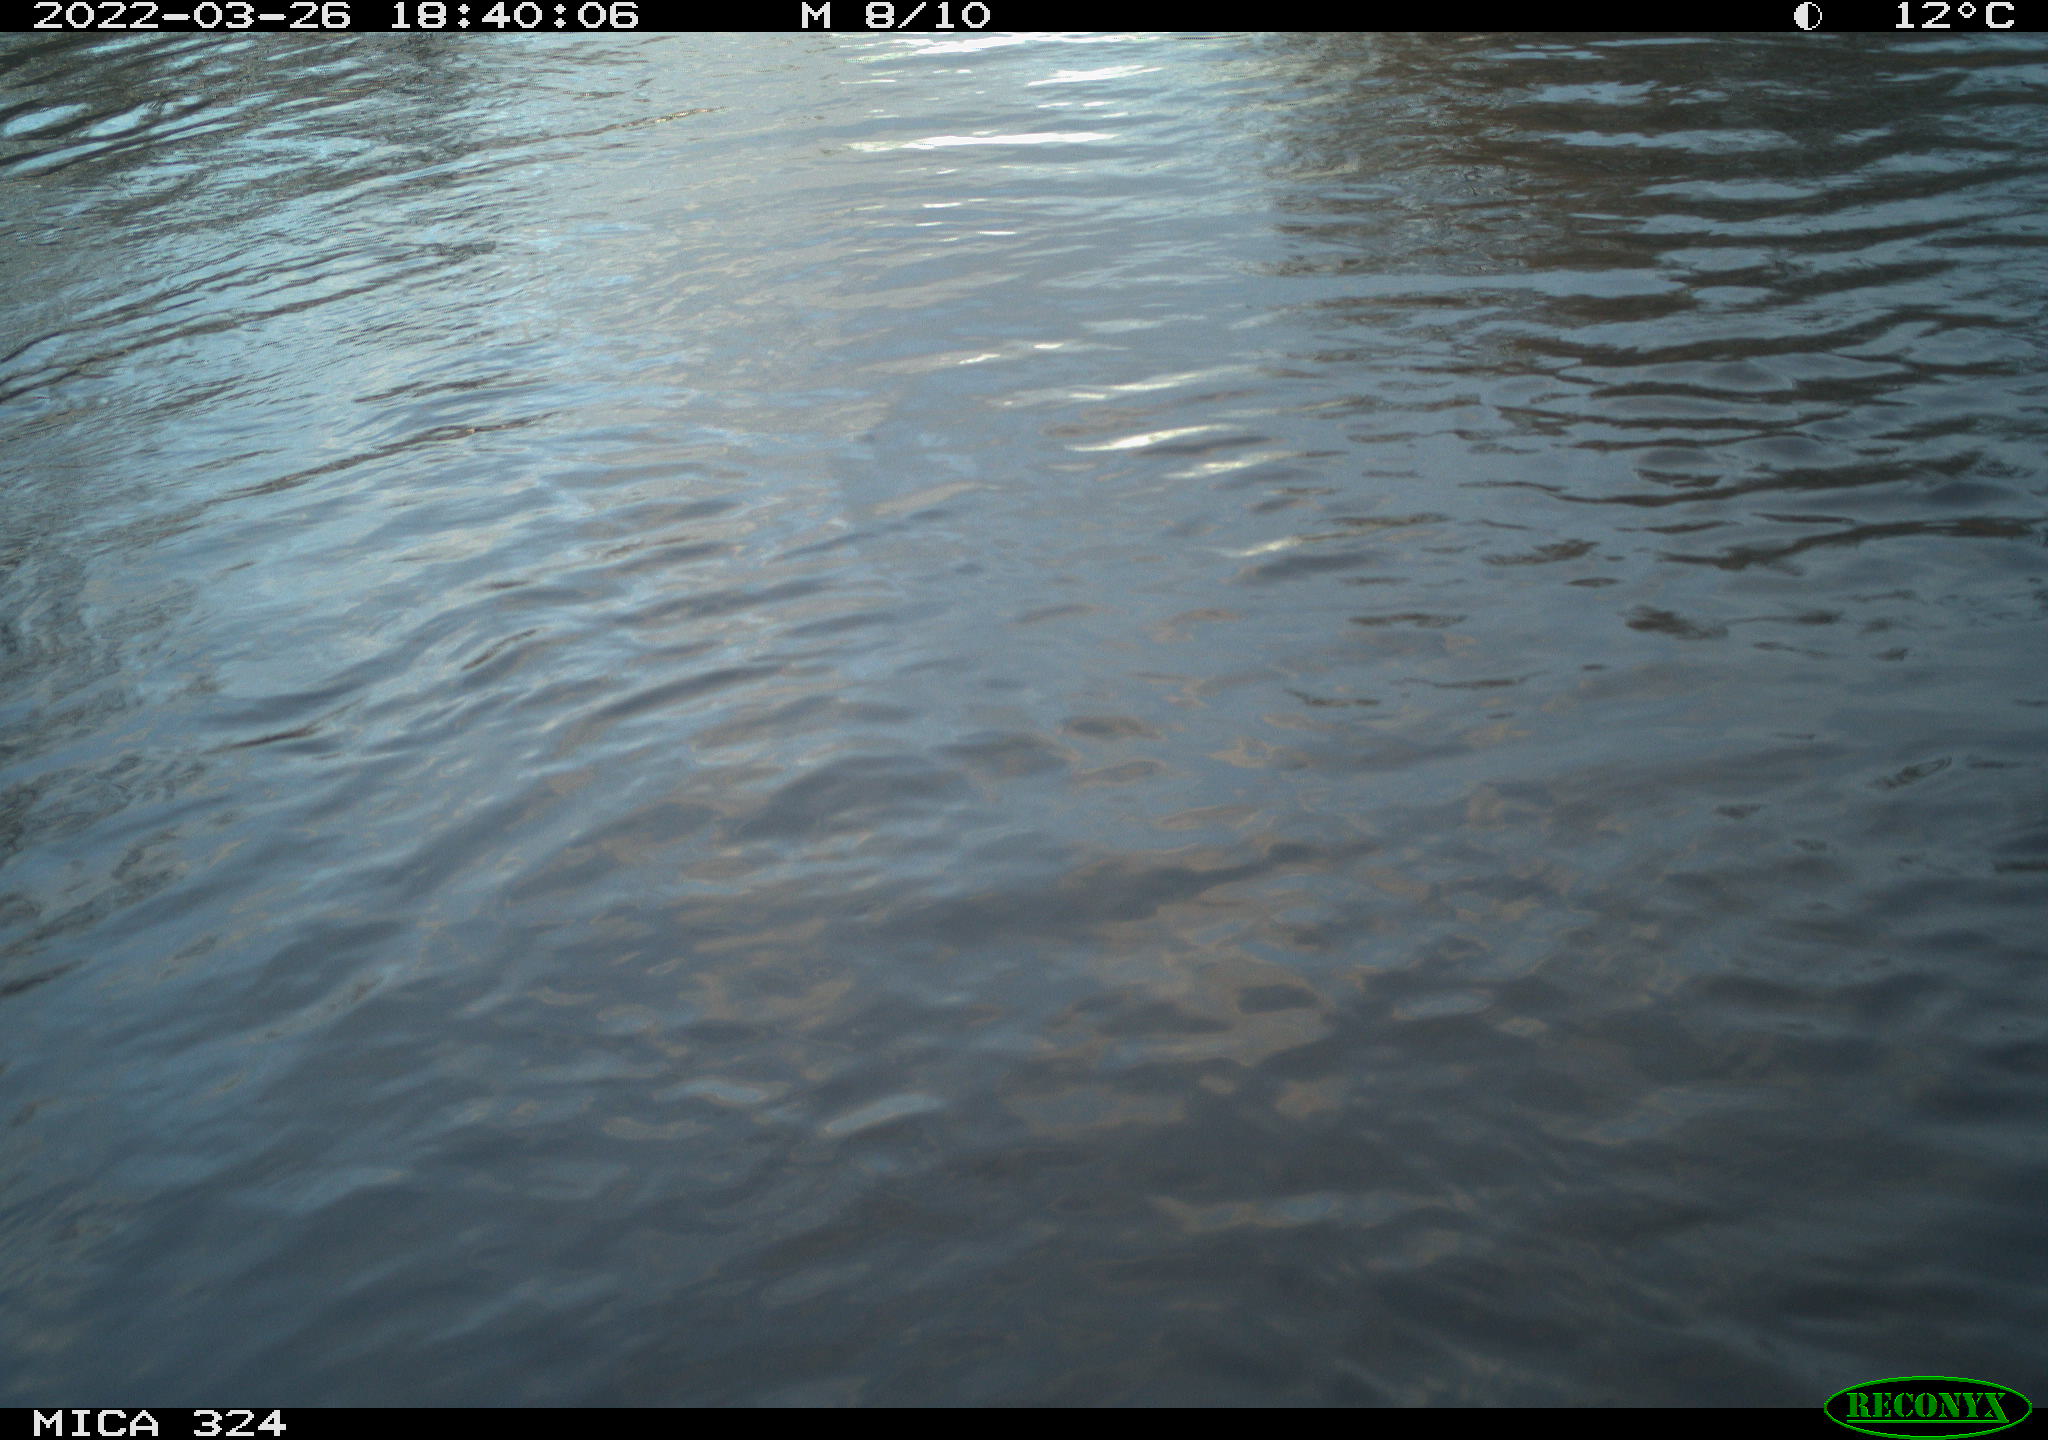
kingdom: Animalia
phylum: Chordata
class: Mammalia
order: Rodentia
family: Cricetidae
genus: Ondatra
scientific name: Ondatra zibethicus
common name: Muskrat
